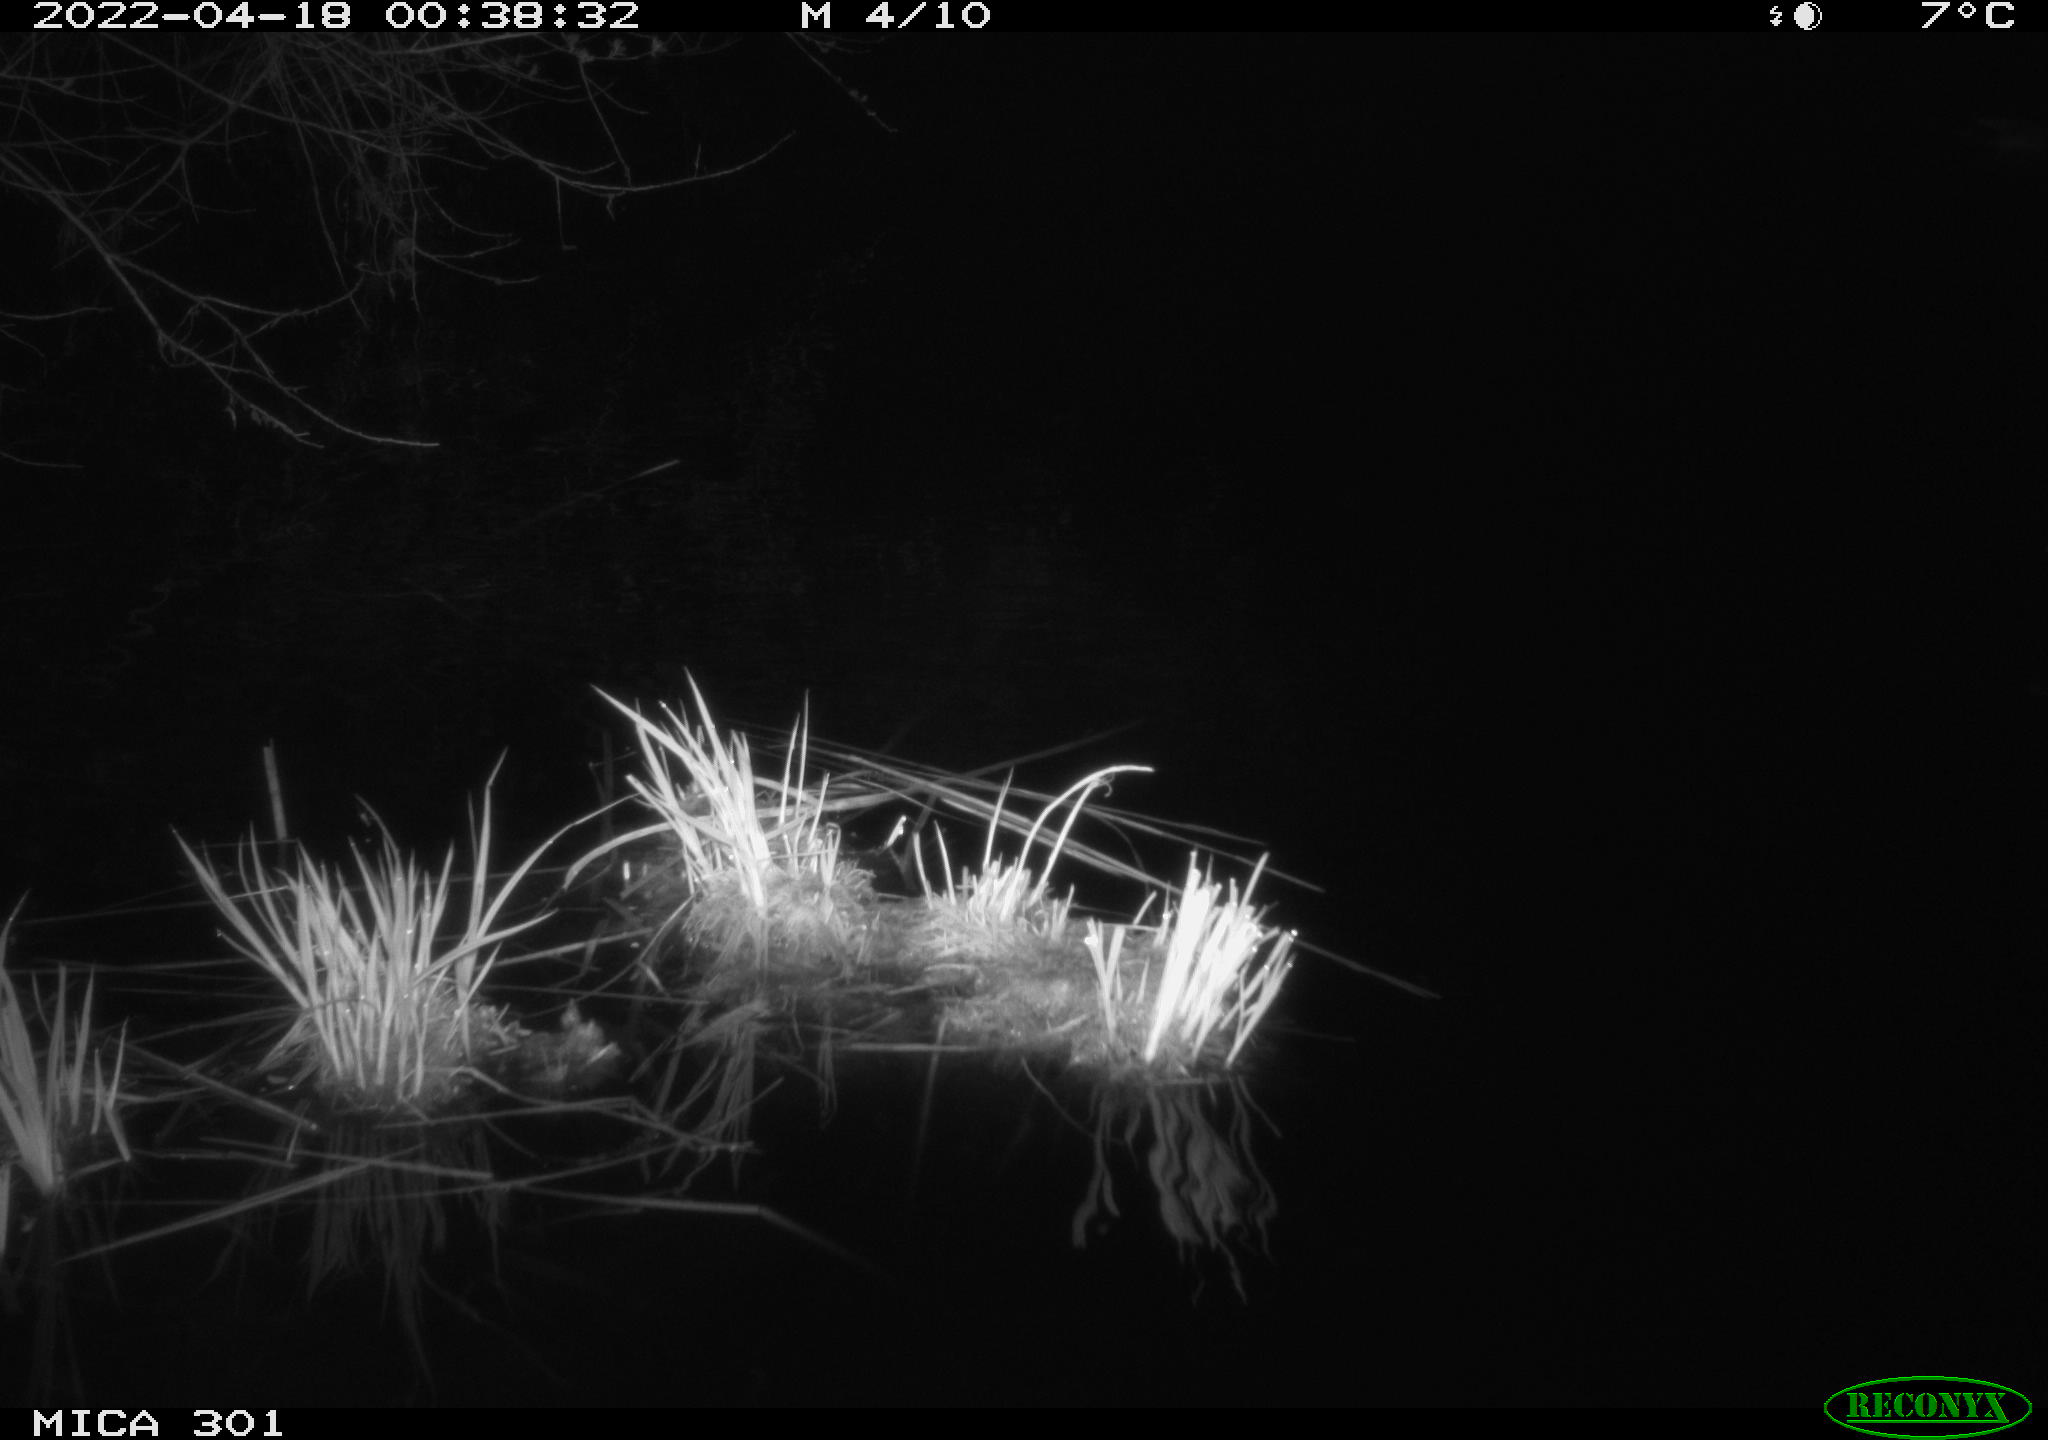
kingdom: Animalia
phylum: Chordata
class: Aves
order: Anseriformes
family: Anatidae
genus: Anas
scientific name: Anas platyrhynchos
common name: Mallard
